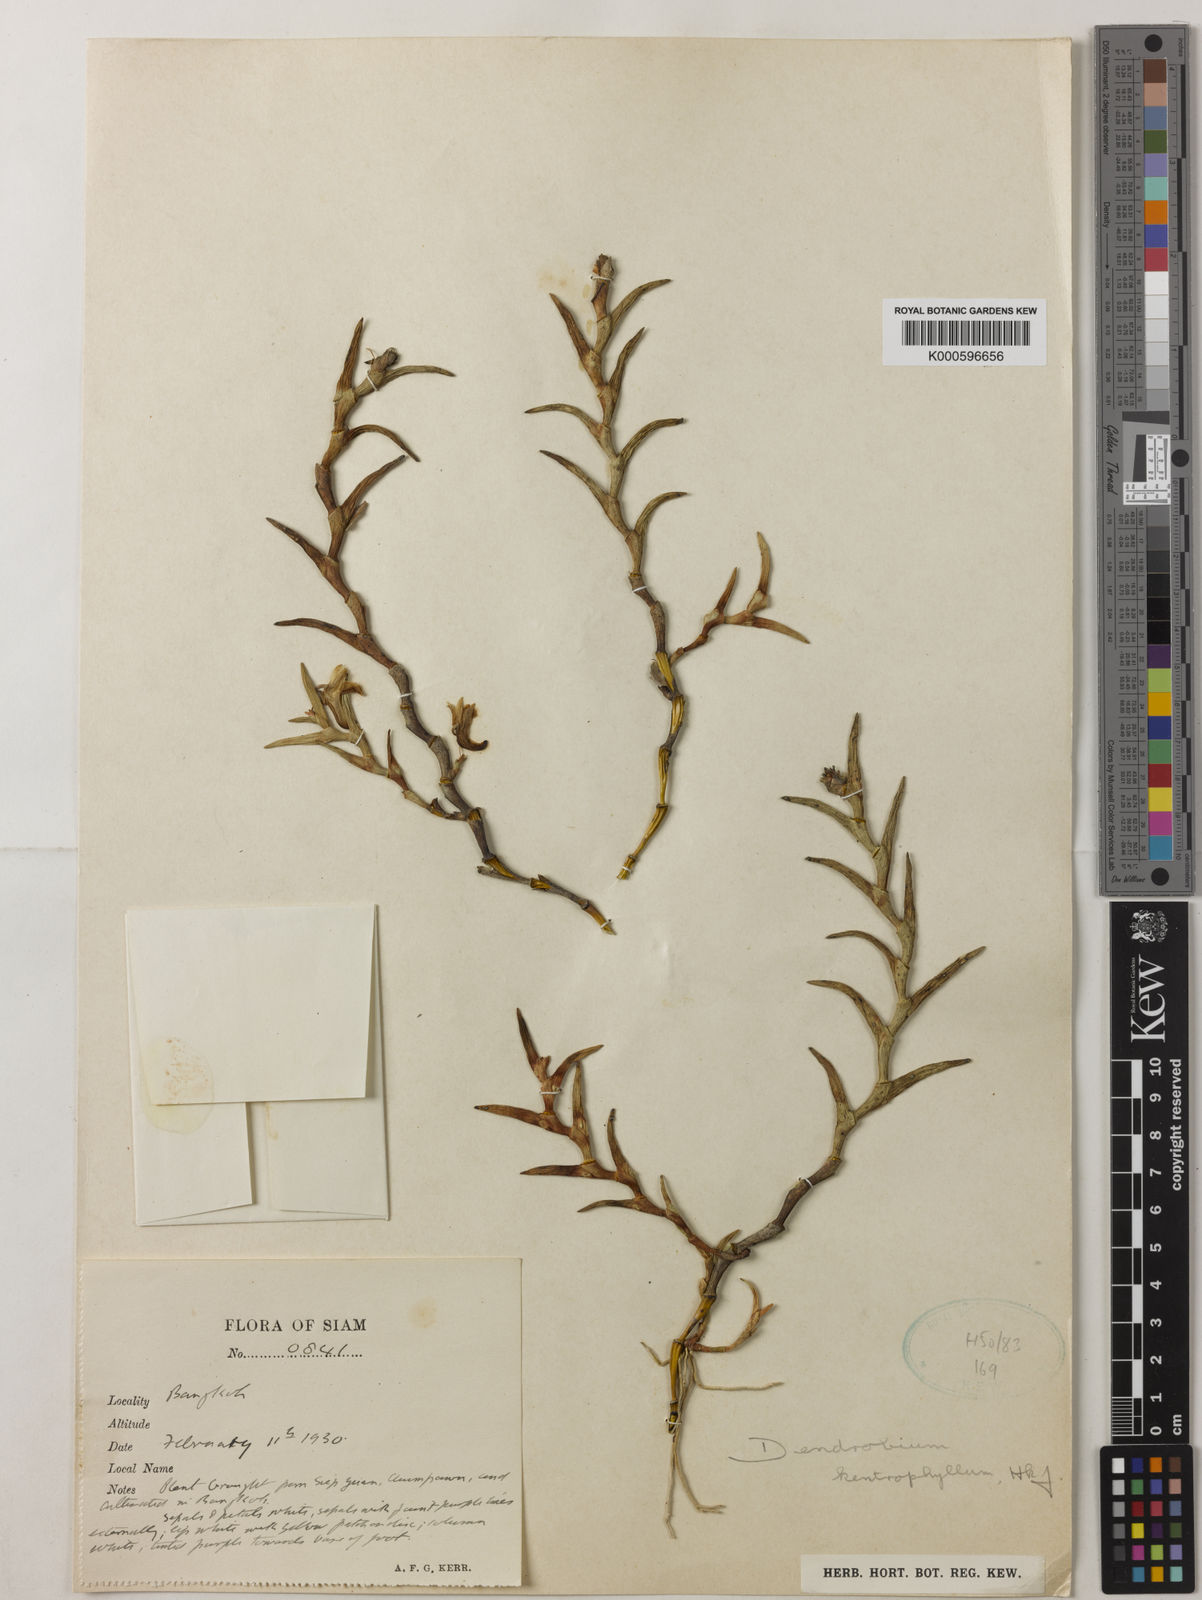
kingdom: Plantae
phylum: Tracheophyta
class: Liliopsida
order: Asparagales
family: Orchidaceae
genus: Dendrobium
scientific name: Dendrobium kentrophyllum
